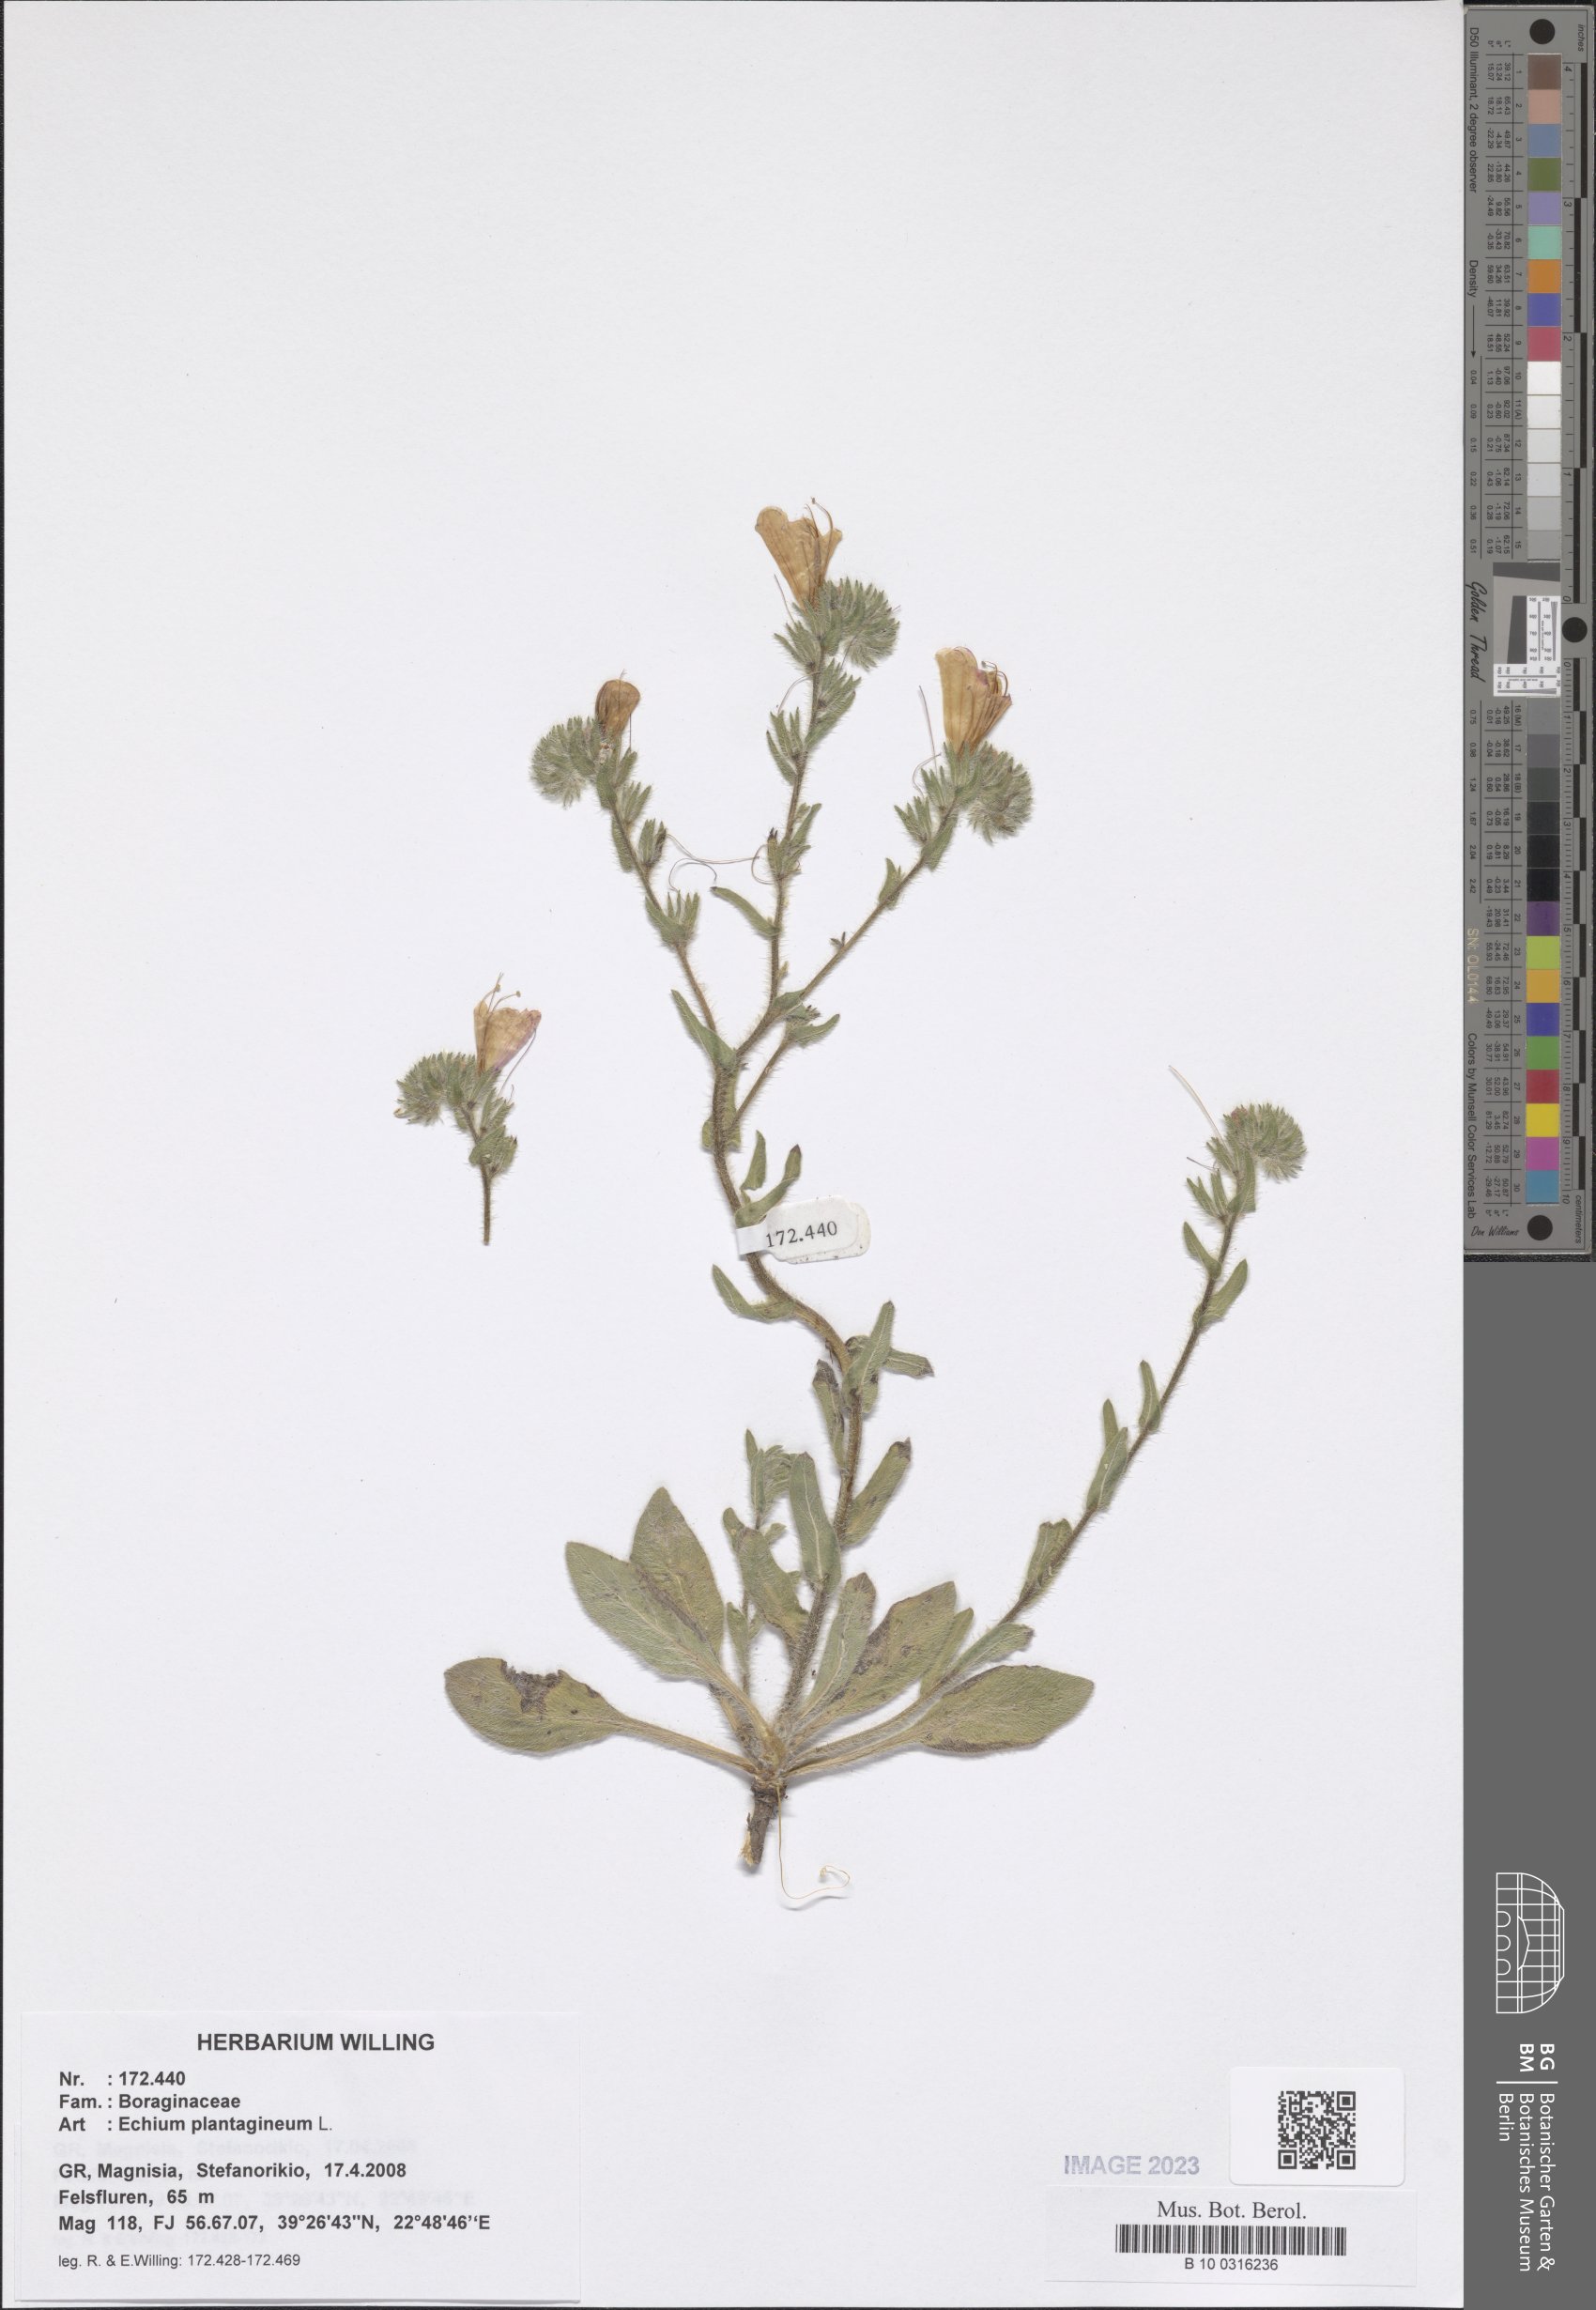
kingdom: Plantae
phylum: Tracheophyta
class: Magnoliopsida
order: Boraginales
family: Boraginaceae
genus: Echium
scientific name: Echium plantagineum
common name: Purple viper's-bugloss
